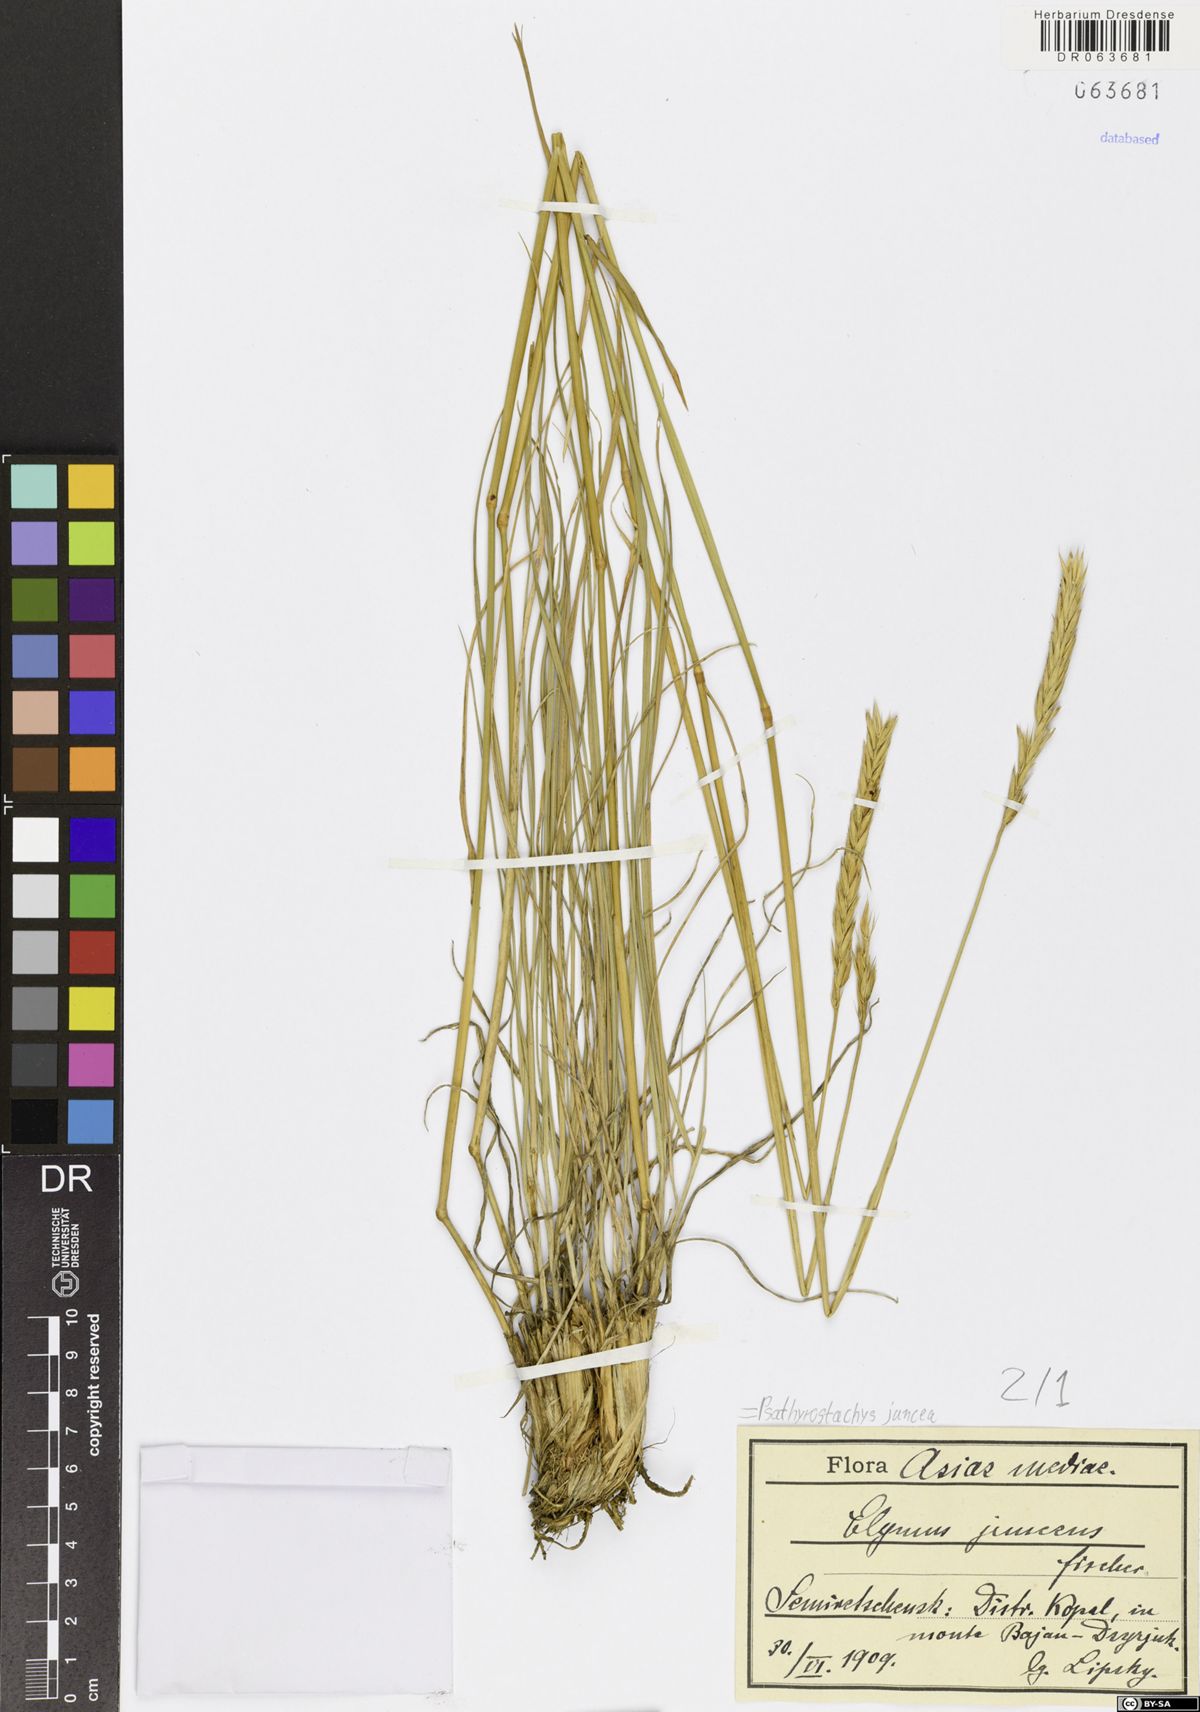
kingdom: Plantae
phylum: Tracheophyta
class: Liliopsida
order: Poales
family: Poaceae
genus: Psathyrostachys
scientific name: Psathyrostachys juncea
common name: Russian wildrye
